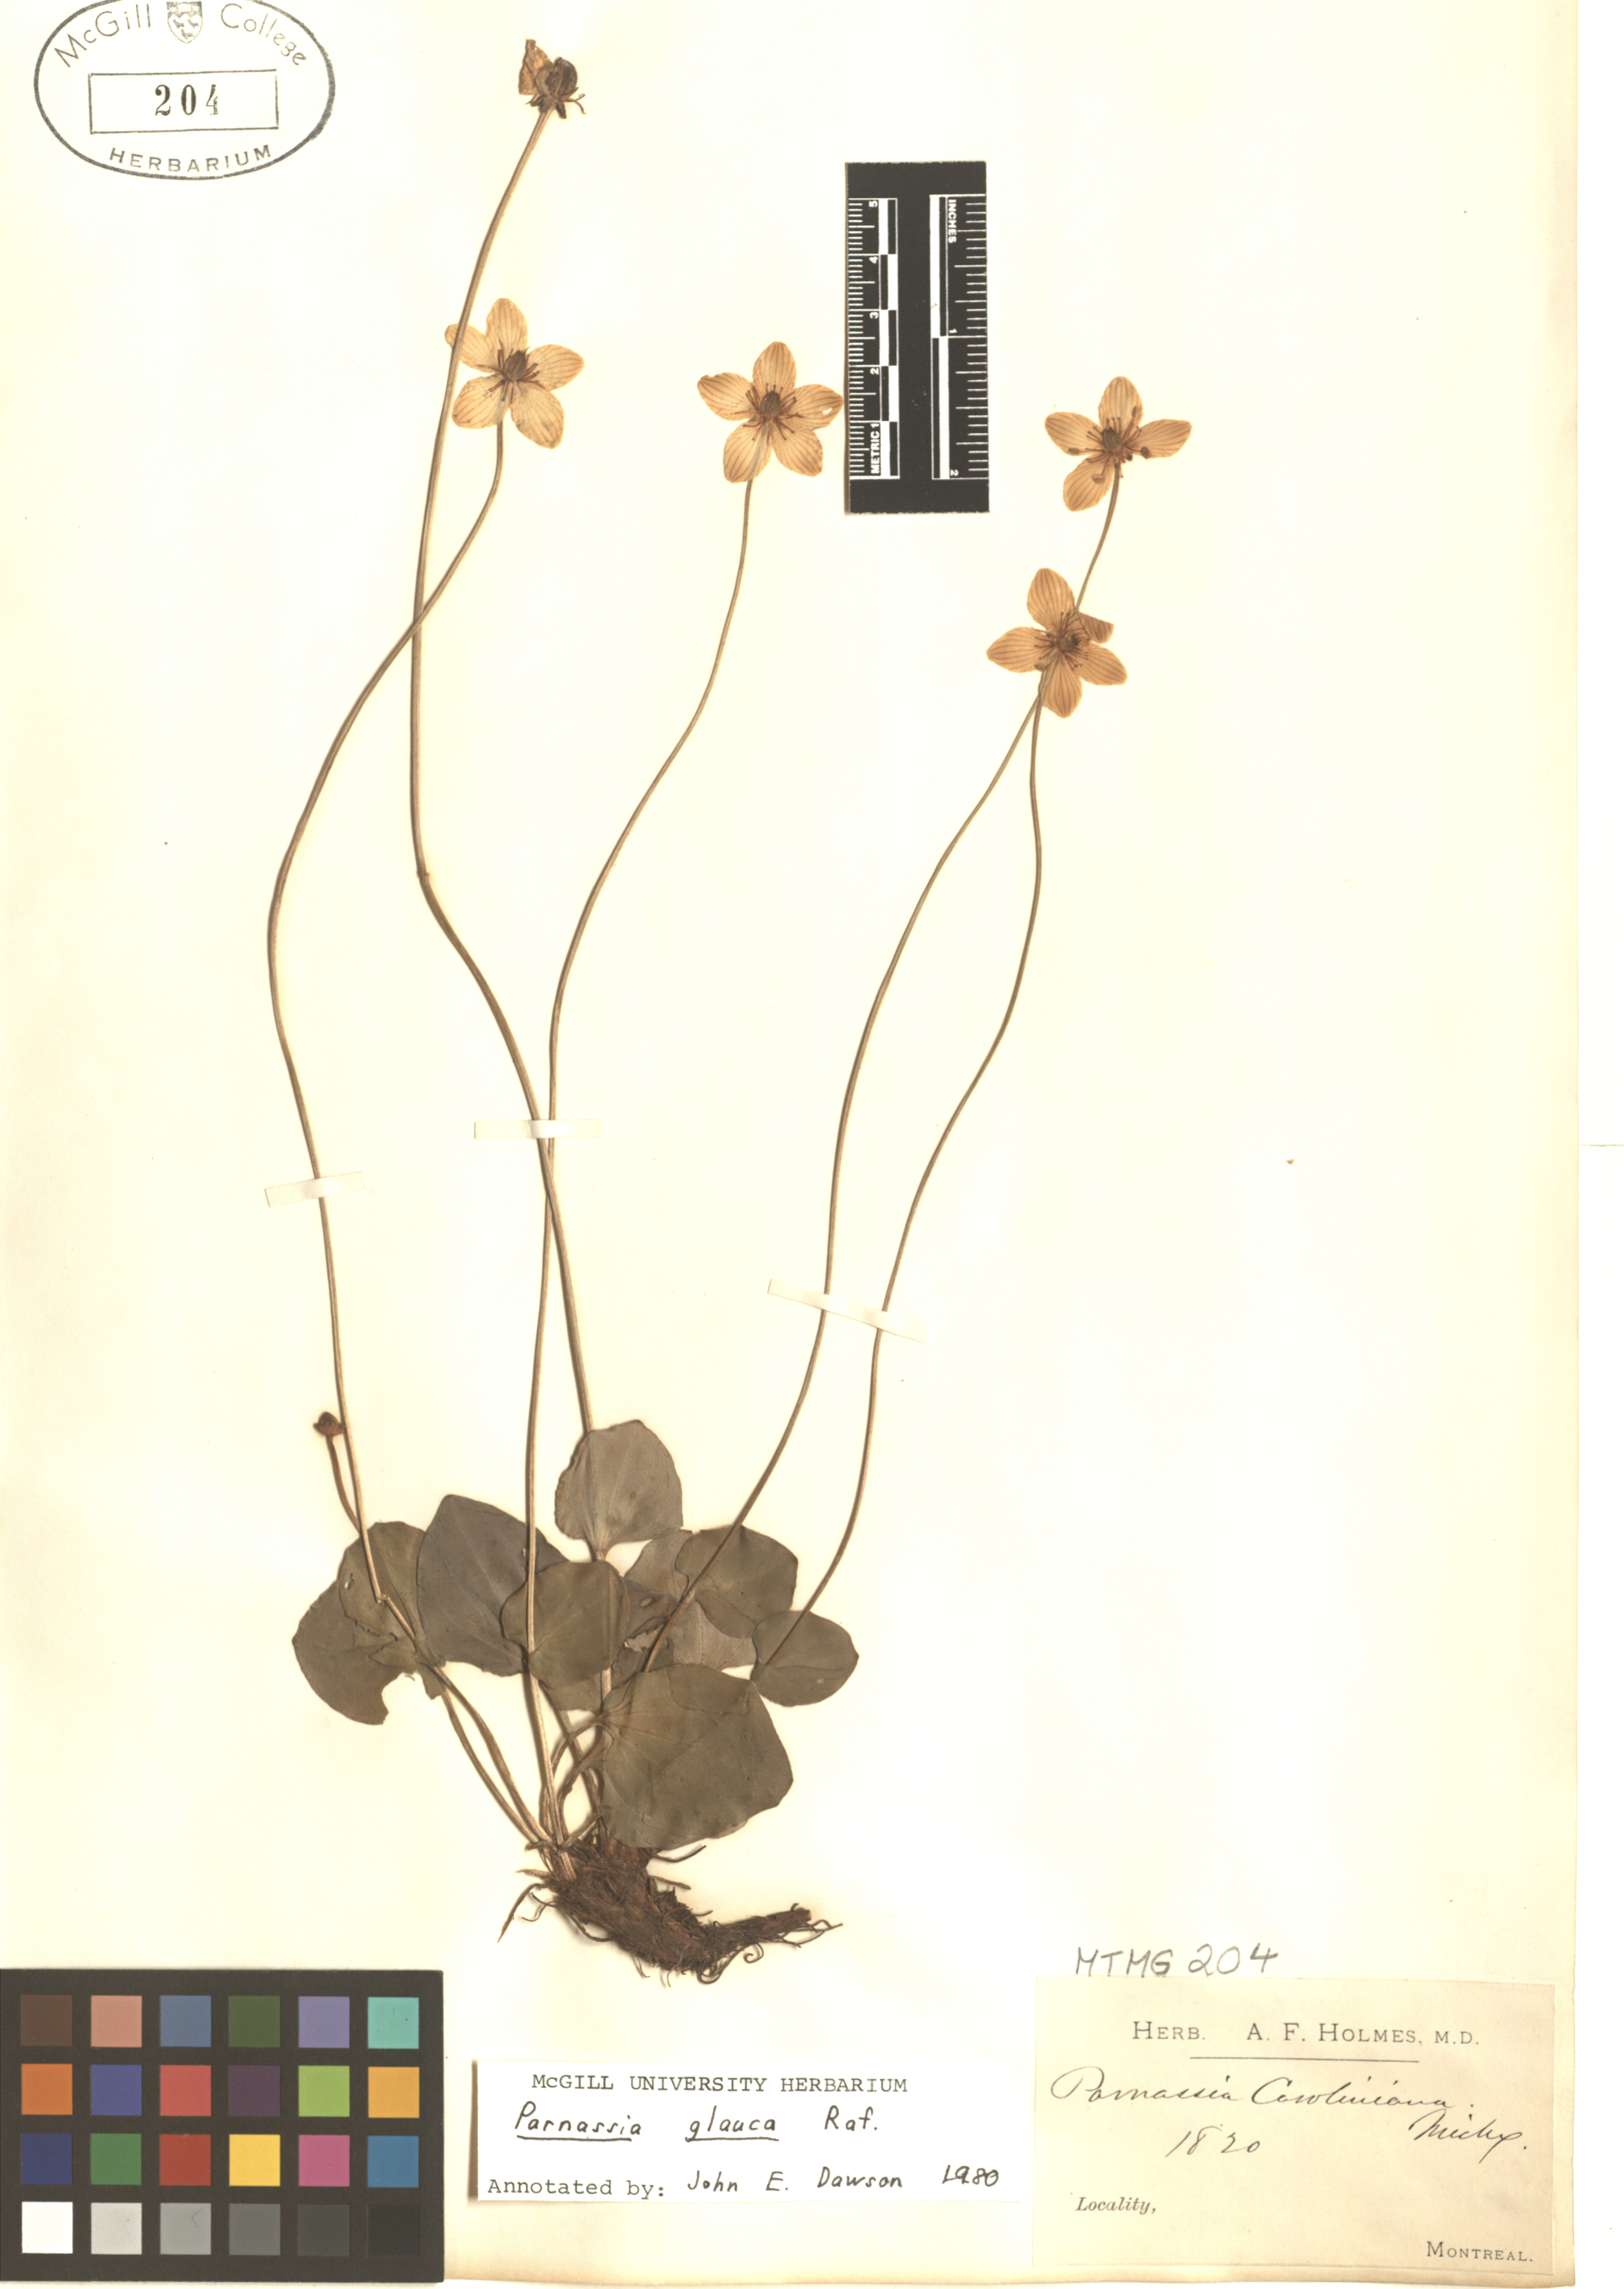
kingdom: Plantae
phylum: Tracheophyta
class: Magnoliopsida
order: Celastrales
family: Parnassiaceae
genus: Parnassia
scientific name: Parnassia glauca
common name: American grass-of-parnassus
